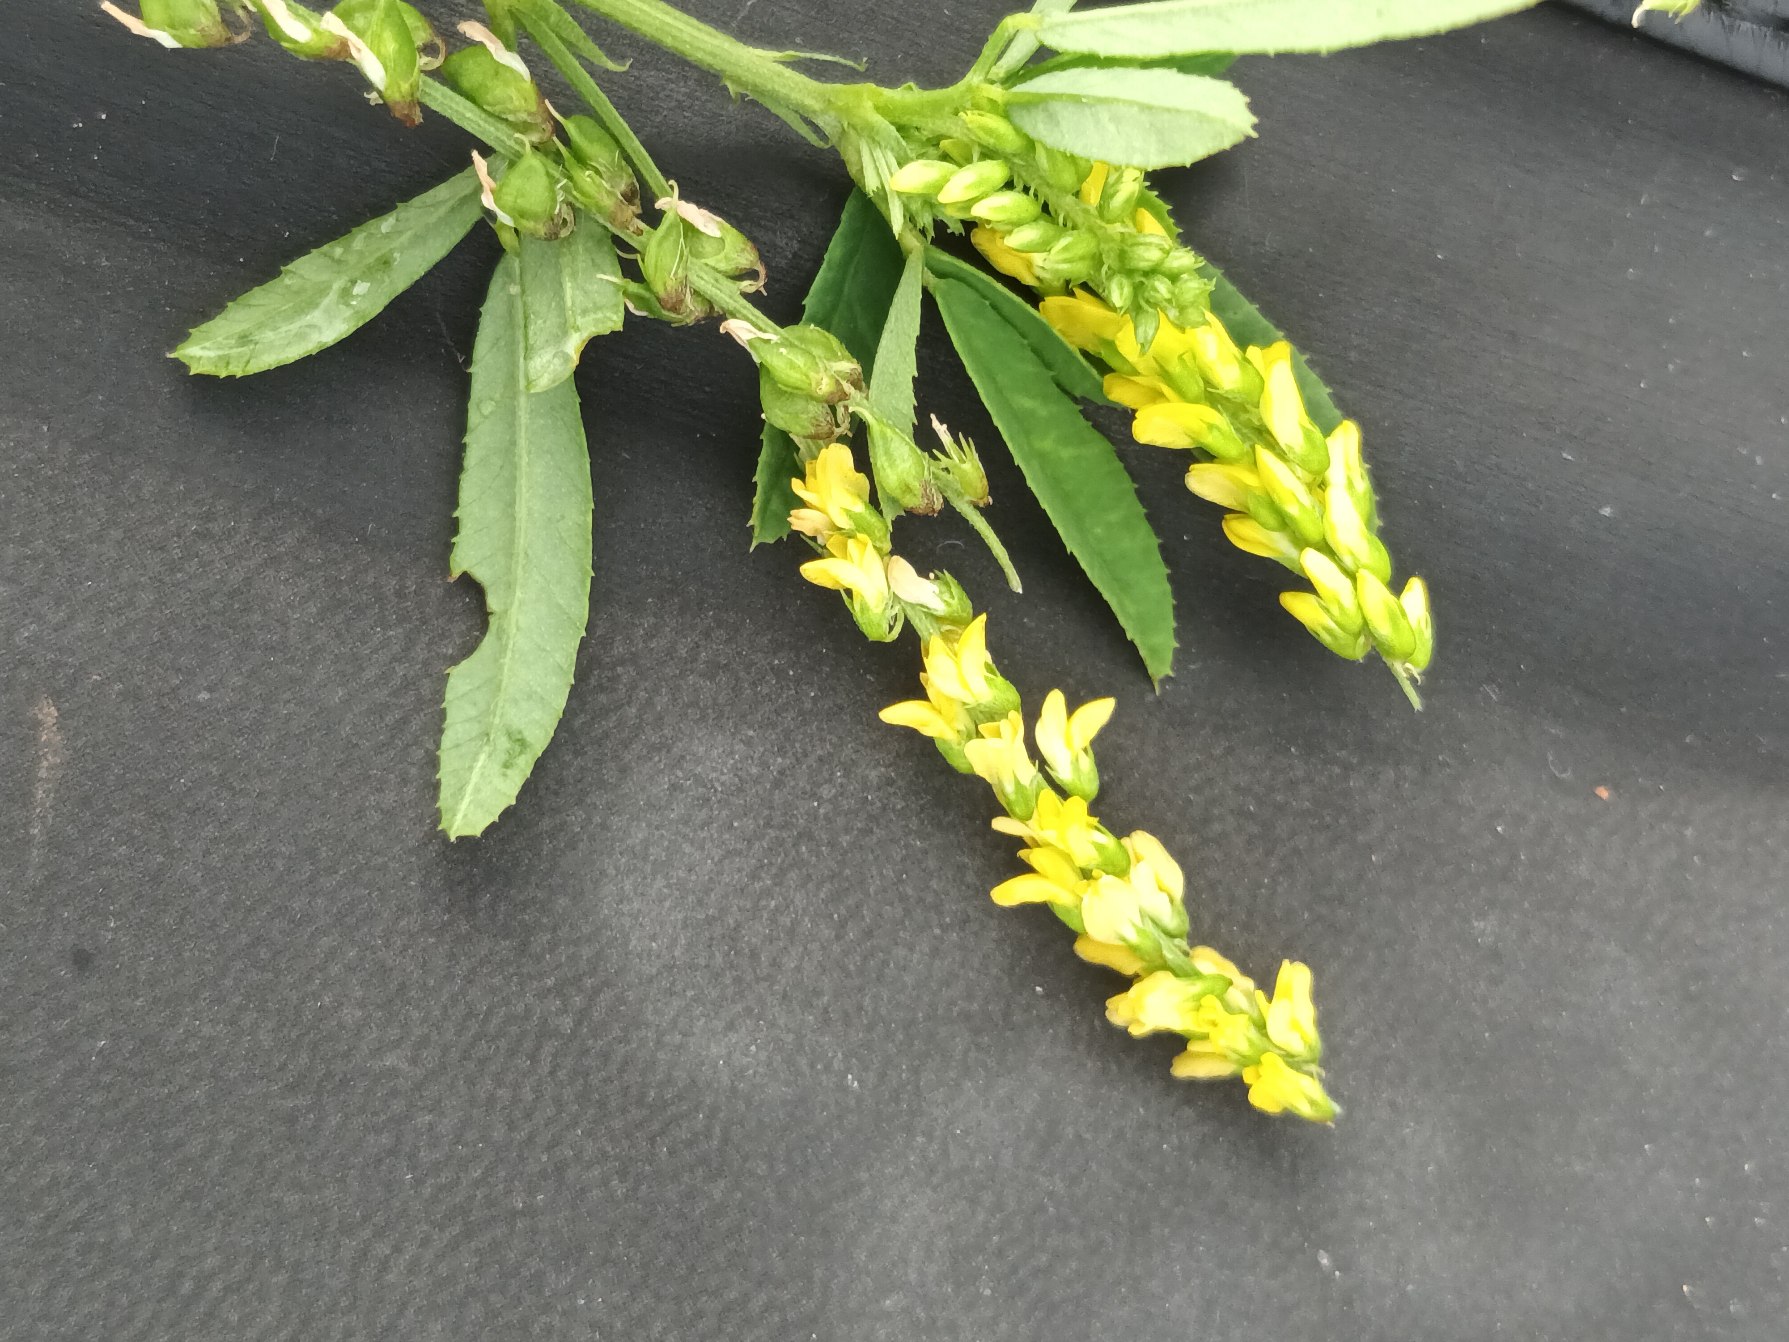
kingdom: Plantae
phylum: Tracheophyta
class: Magnoliopsida
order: Fabales
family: Fabaceae
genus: Melilotus
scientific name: Melilotus dentatus
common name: Strand-stenkløver
